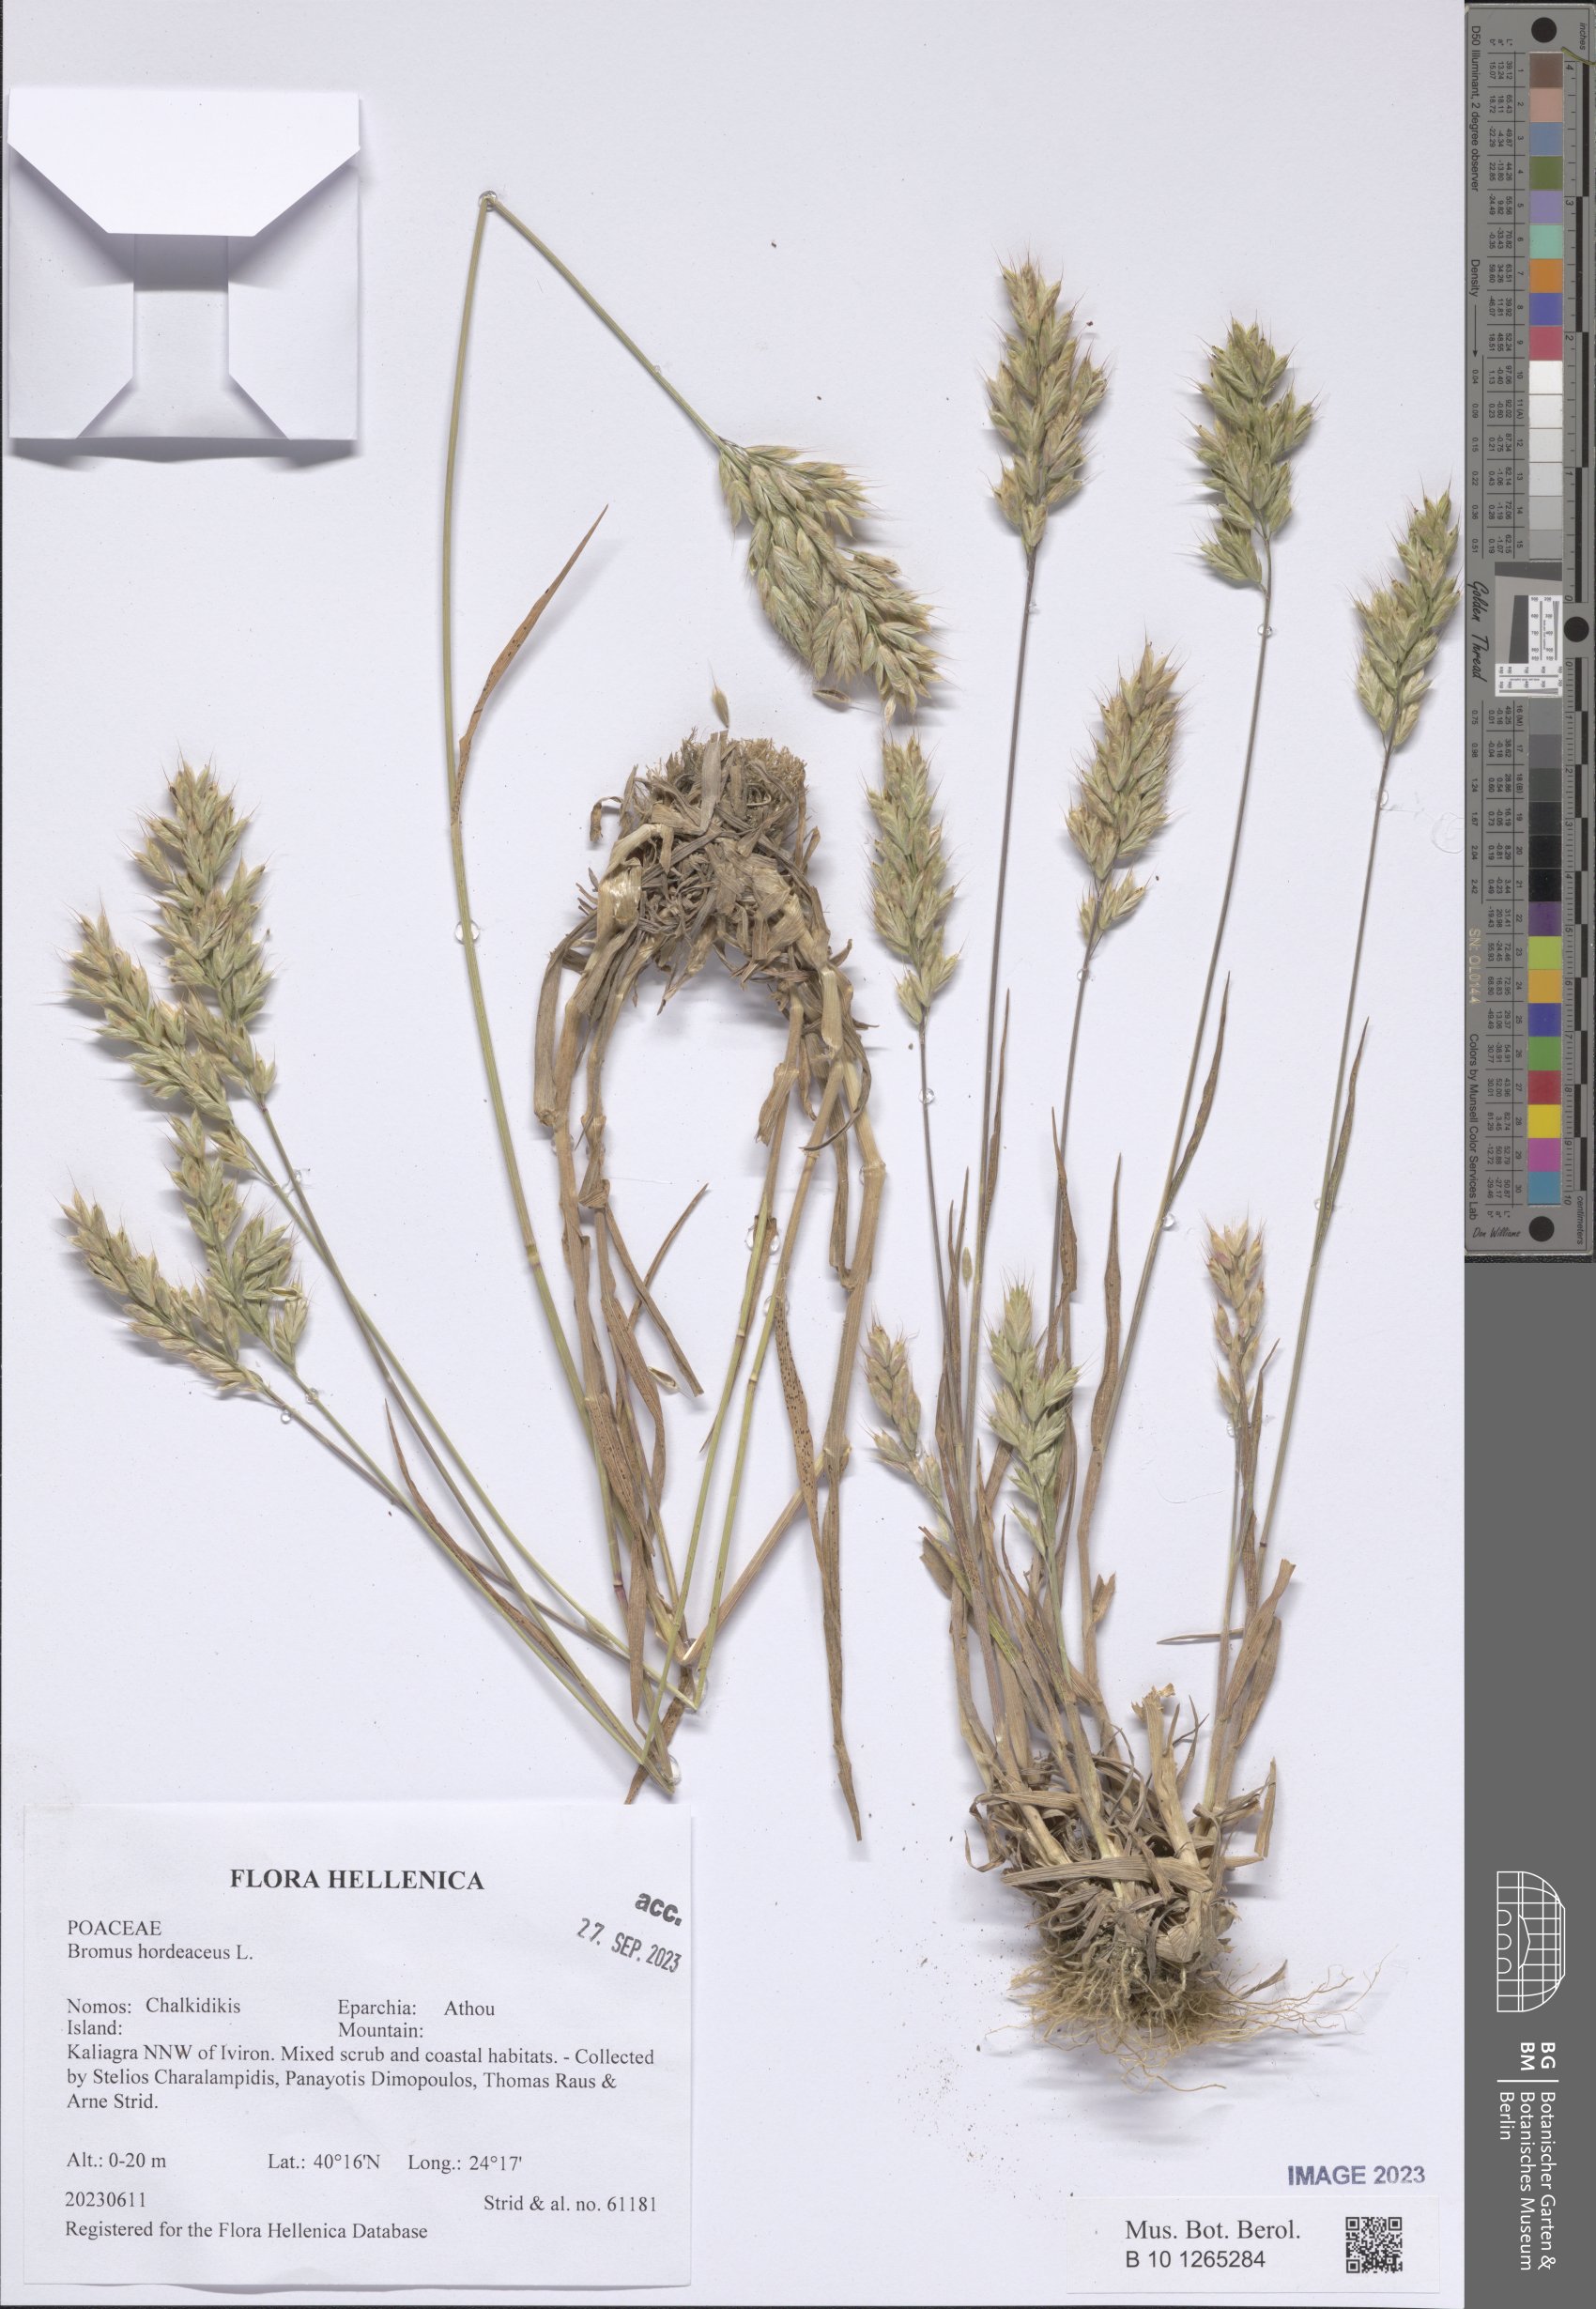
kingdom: Plantae
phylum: Tracheophyta
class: Liliopsida
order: Poales
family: Poaceae
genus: Bromus
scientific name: Bromus hordeaceus
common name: Soft brome
